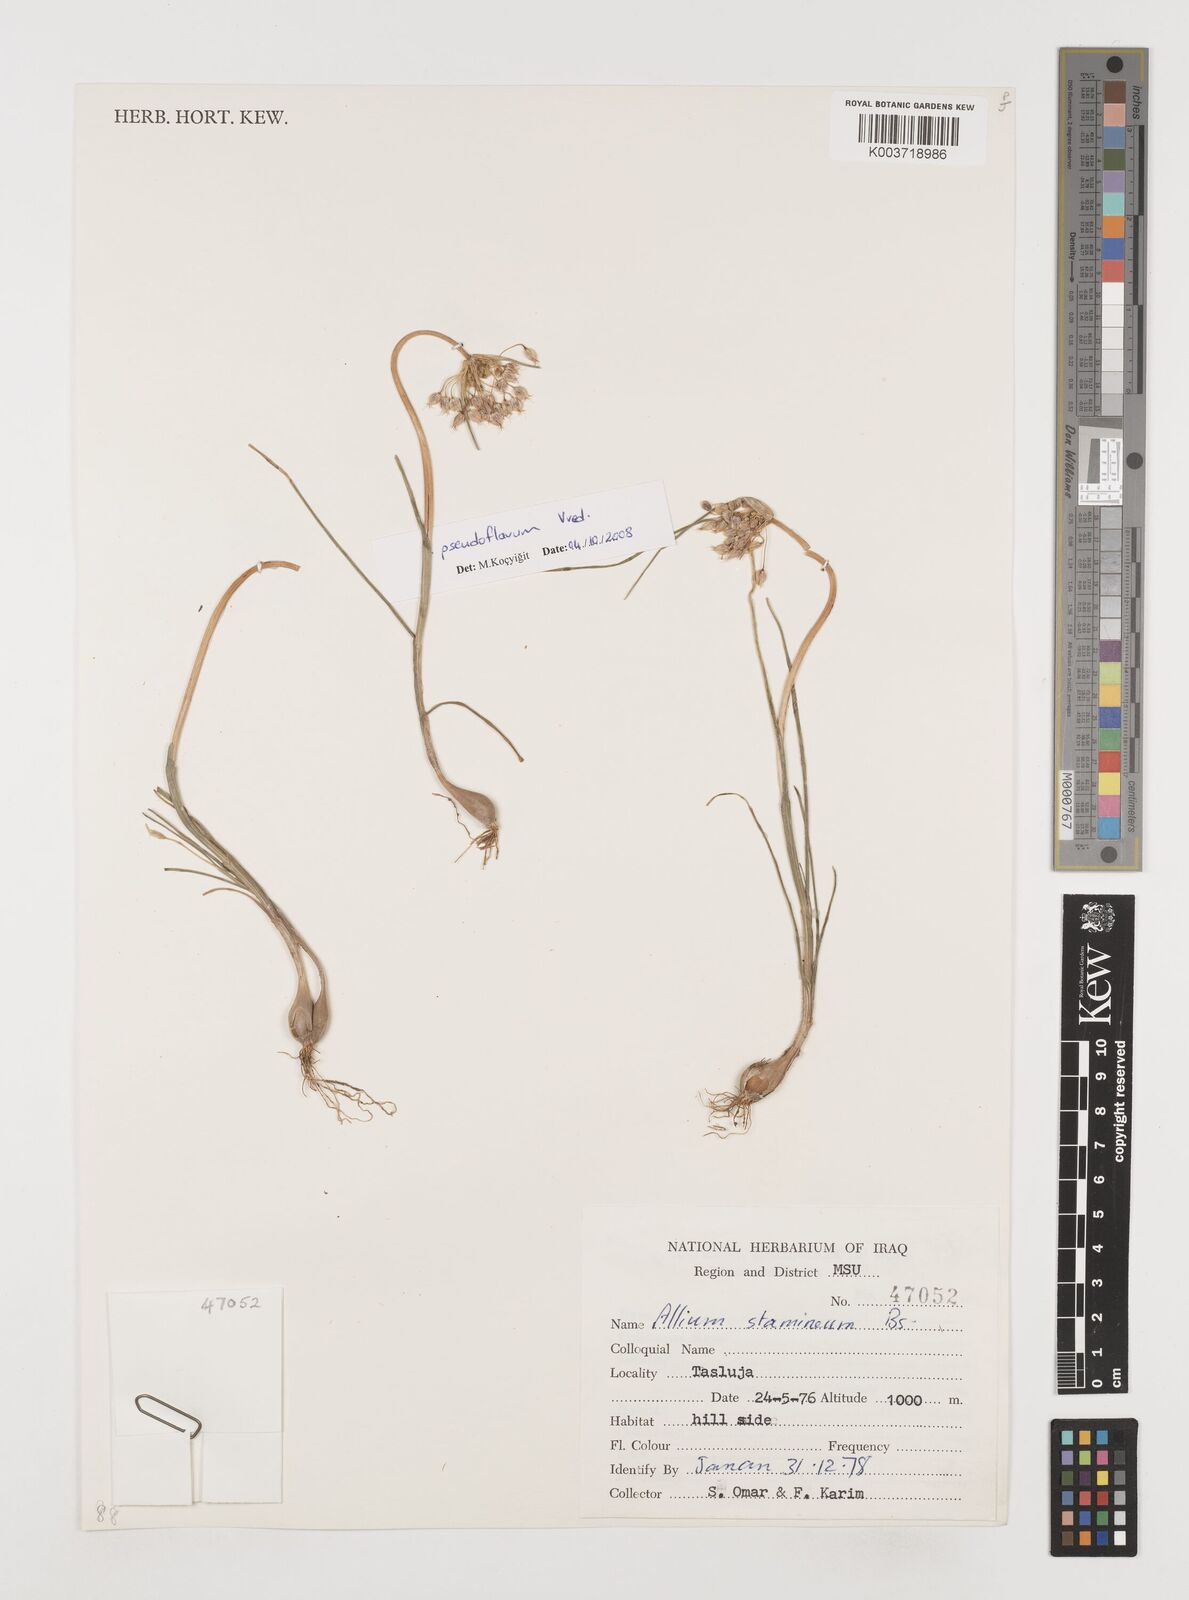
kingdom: Plantae
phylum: Tracheophyta
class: Liliopsida
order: Asparagales
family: Amaryllidaceae
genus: Allium
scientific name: Allium stamineum
